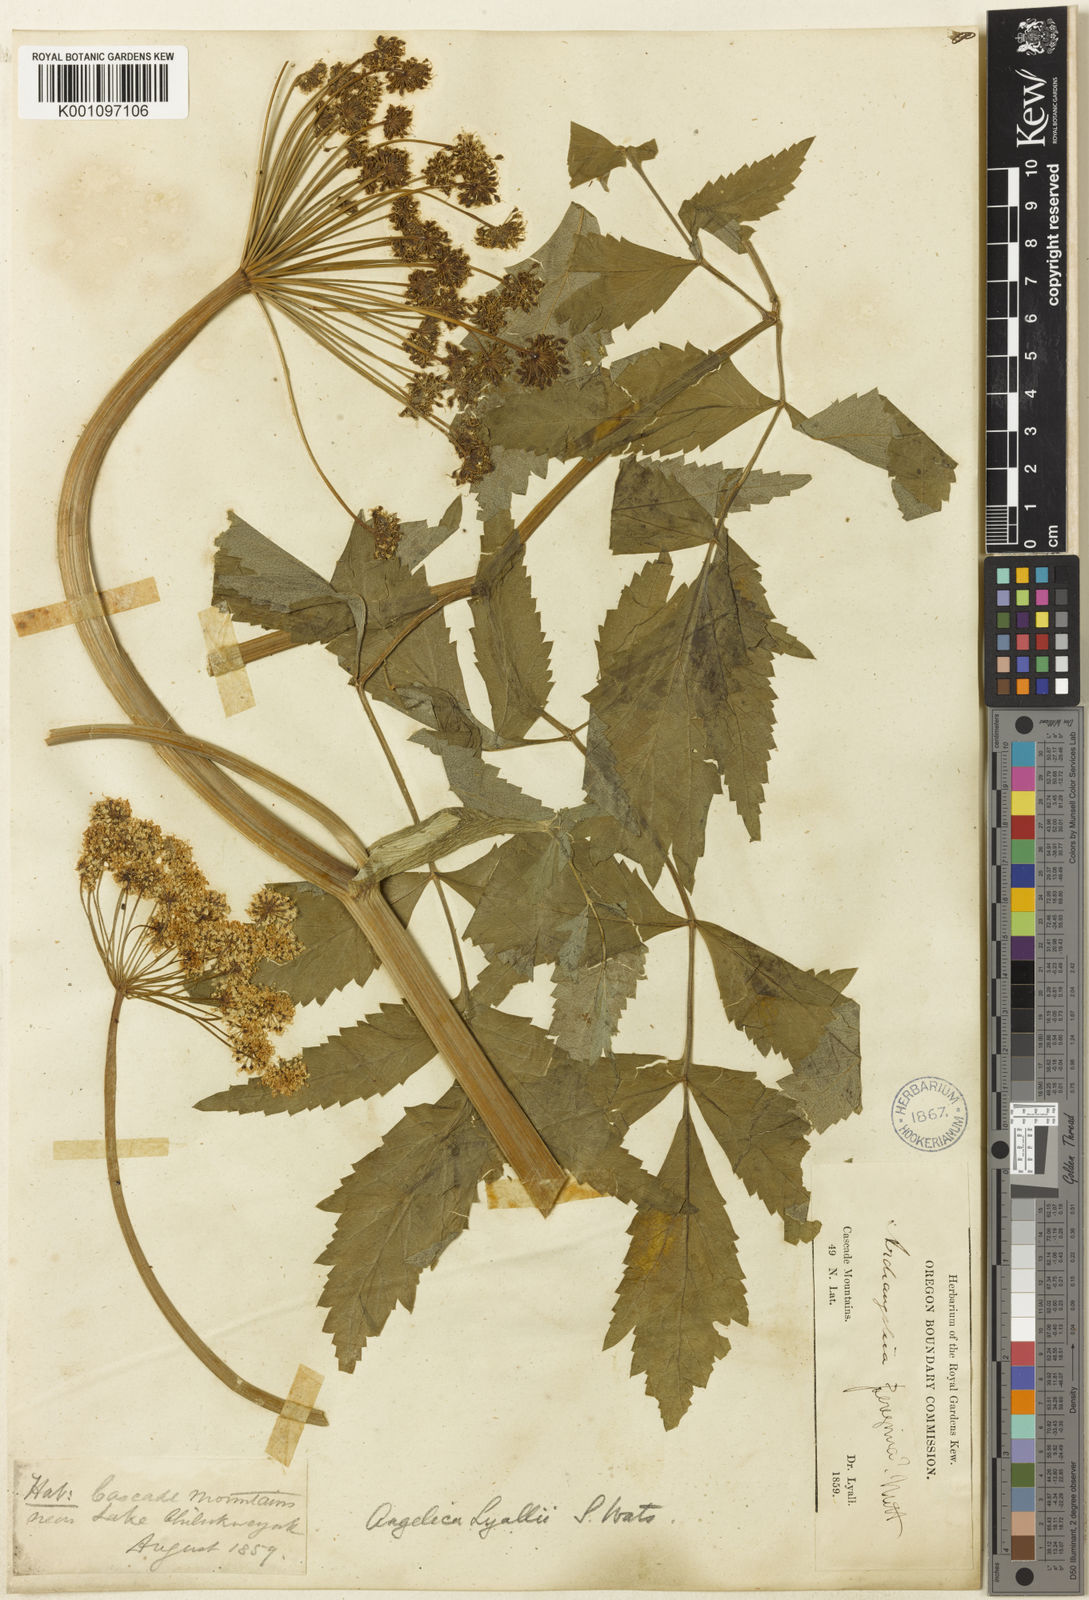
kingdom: Plantae
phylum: Tracheophyta
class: Magnoliopsida
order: Apiales
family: Apiaceae
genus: Angelica
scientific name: Angelica
